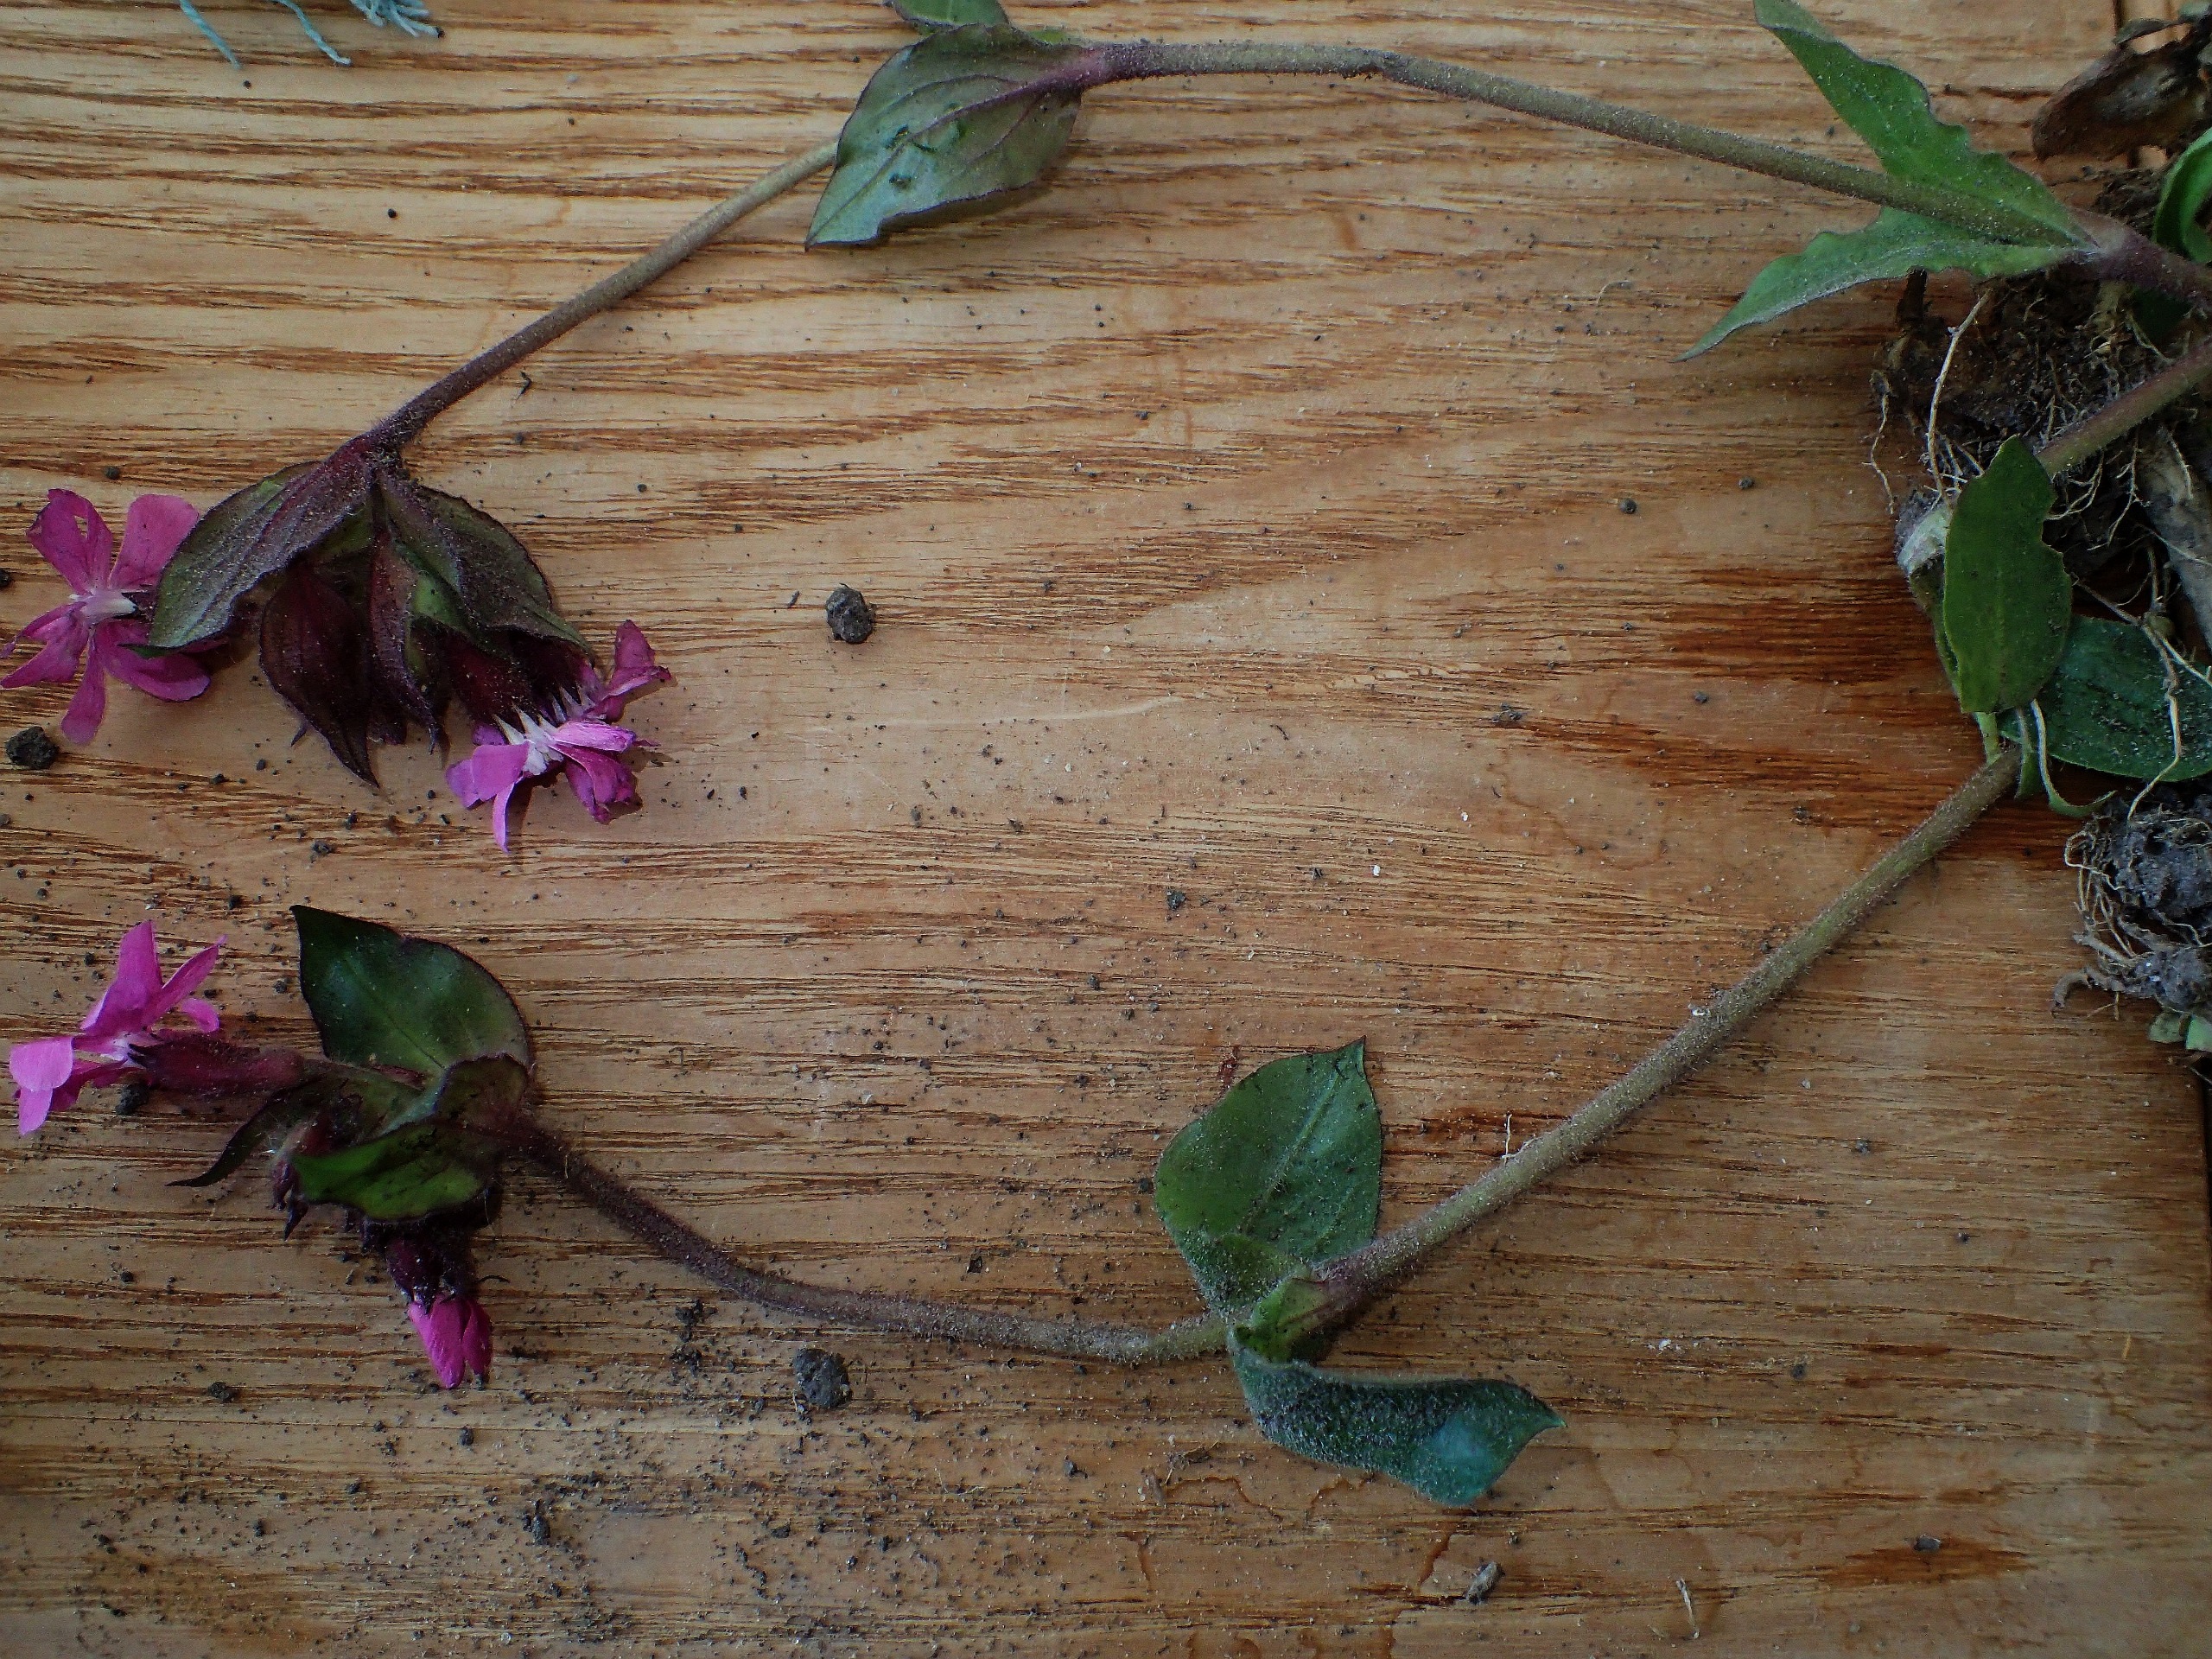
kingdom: Plantae
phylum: Tracheophyta
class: Magnoliopsida
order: Caryophyllales
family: Caryophyllaceae
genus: Silene
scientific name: Silene dioica
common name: Dagpragtstjerne
